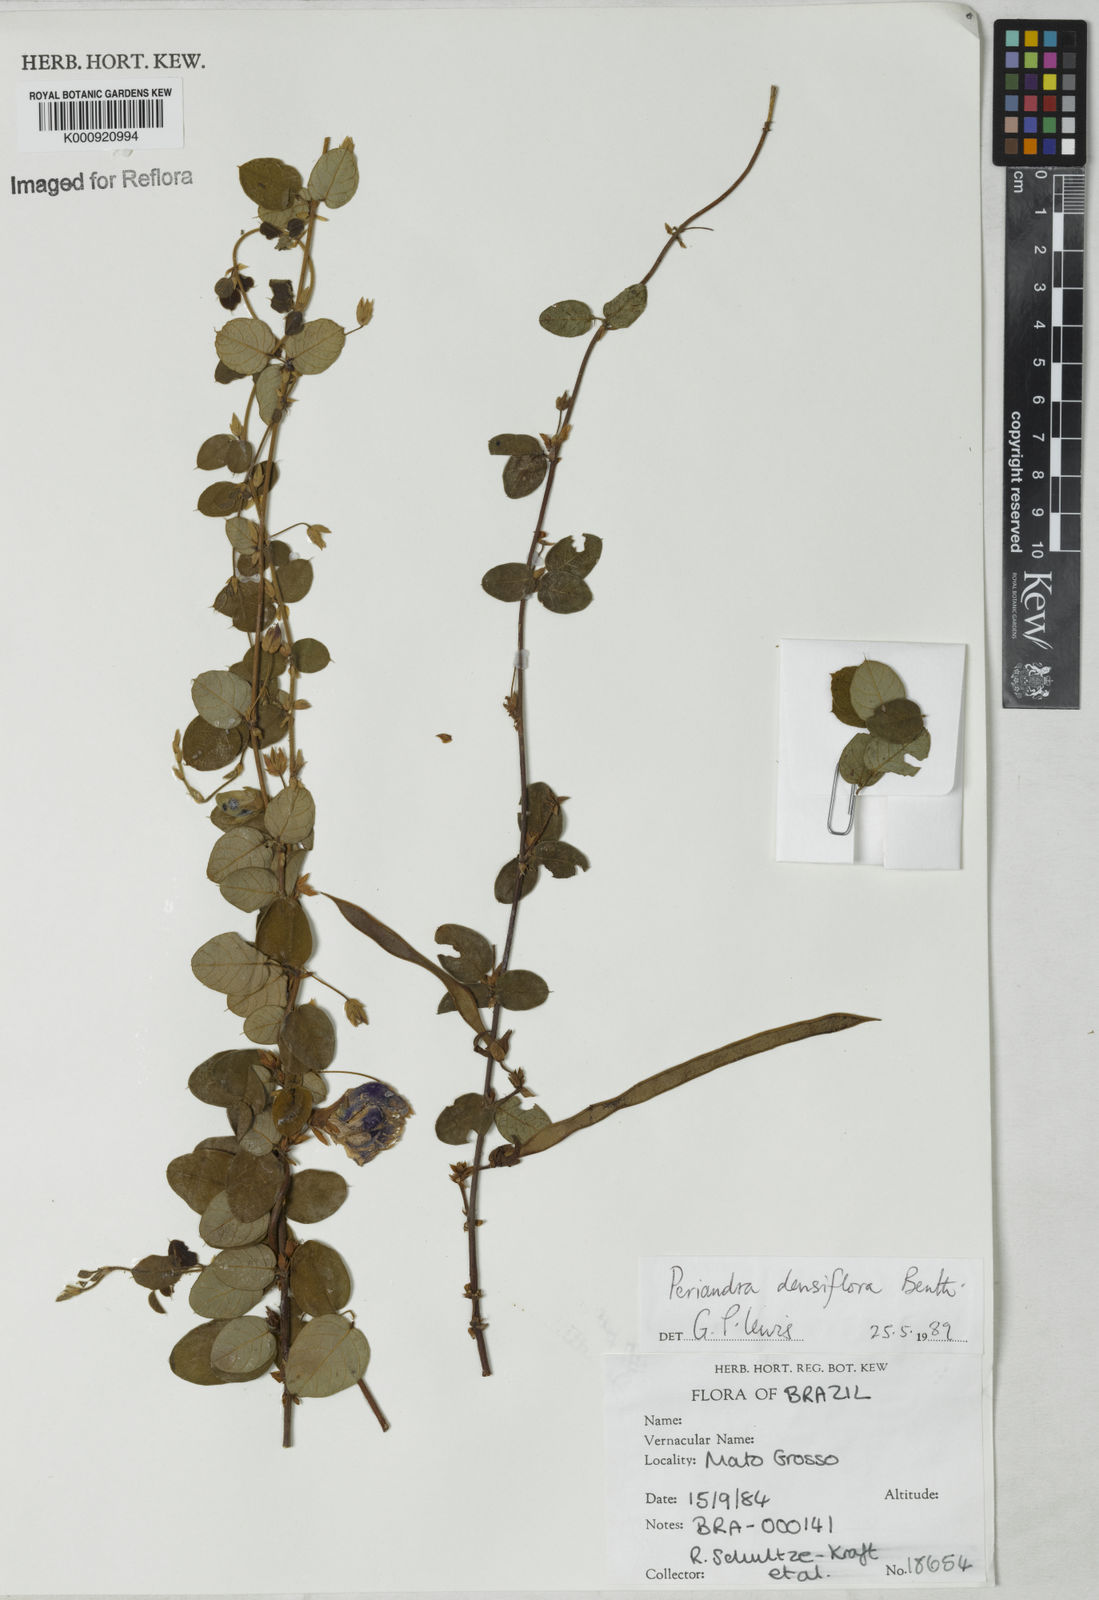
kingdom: Plantae
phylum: Tracheophyta
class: Magnoliopsida
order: Fabales
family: Fabaceae
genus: Periandra
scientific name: Periandra densiflora
